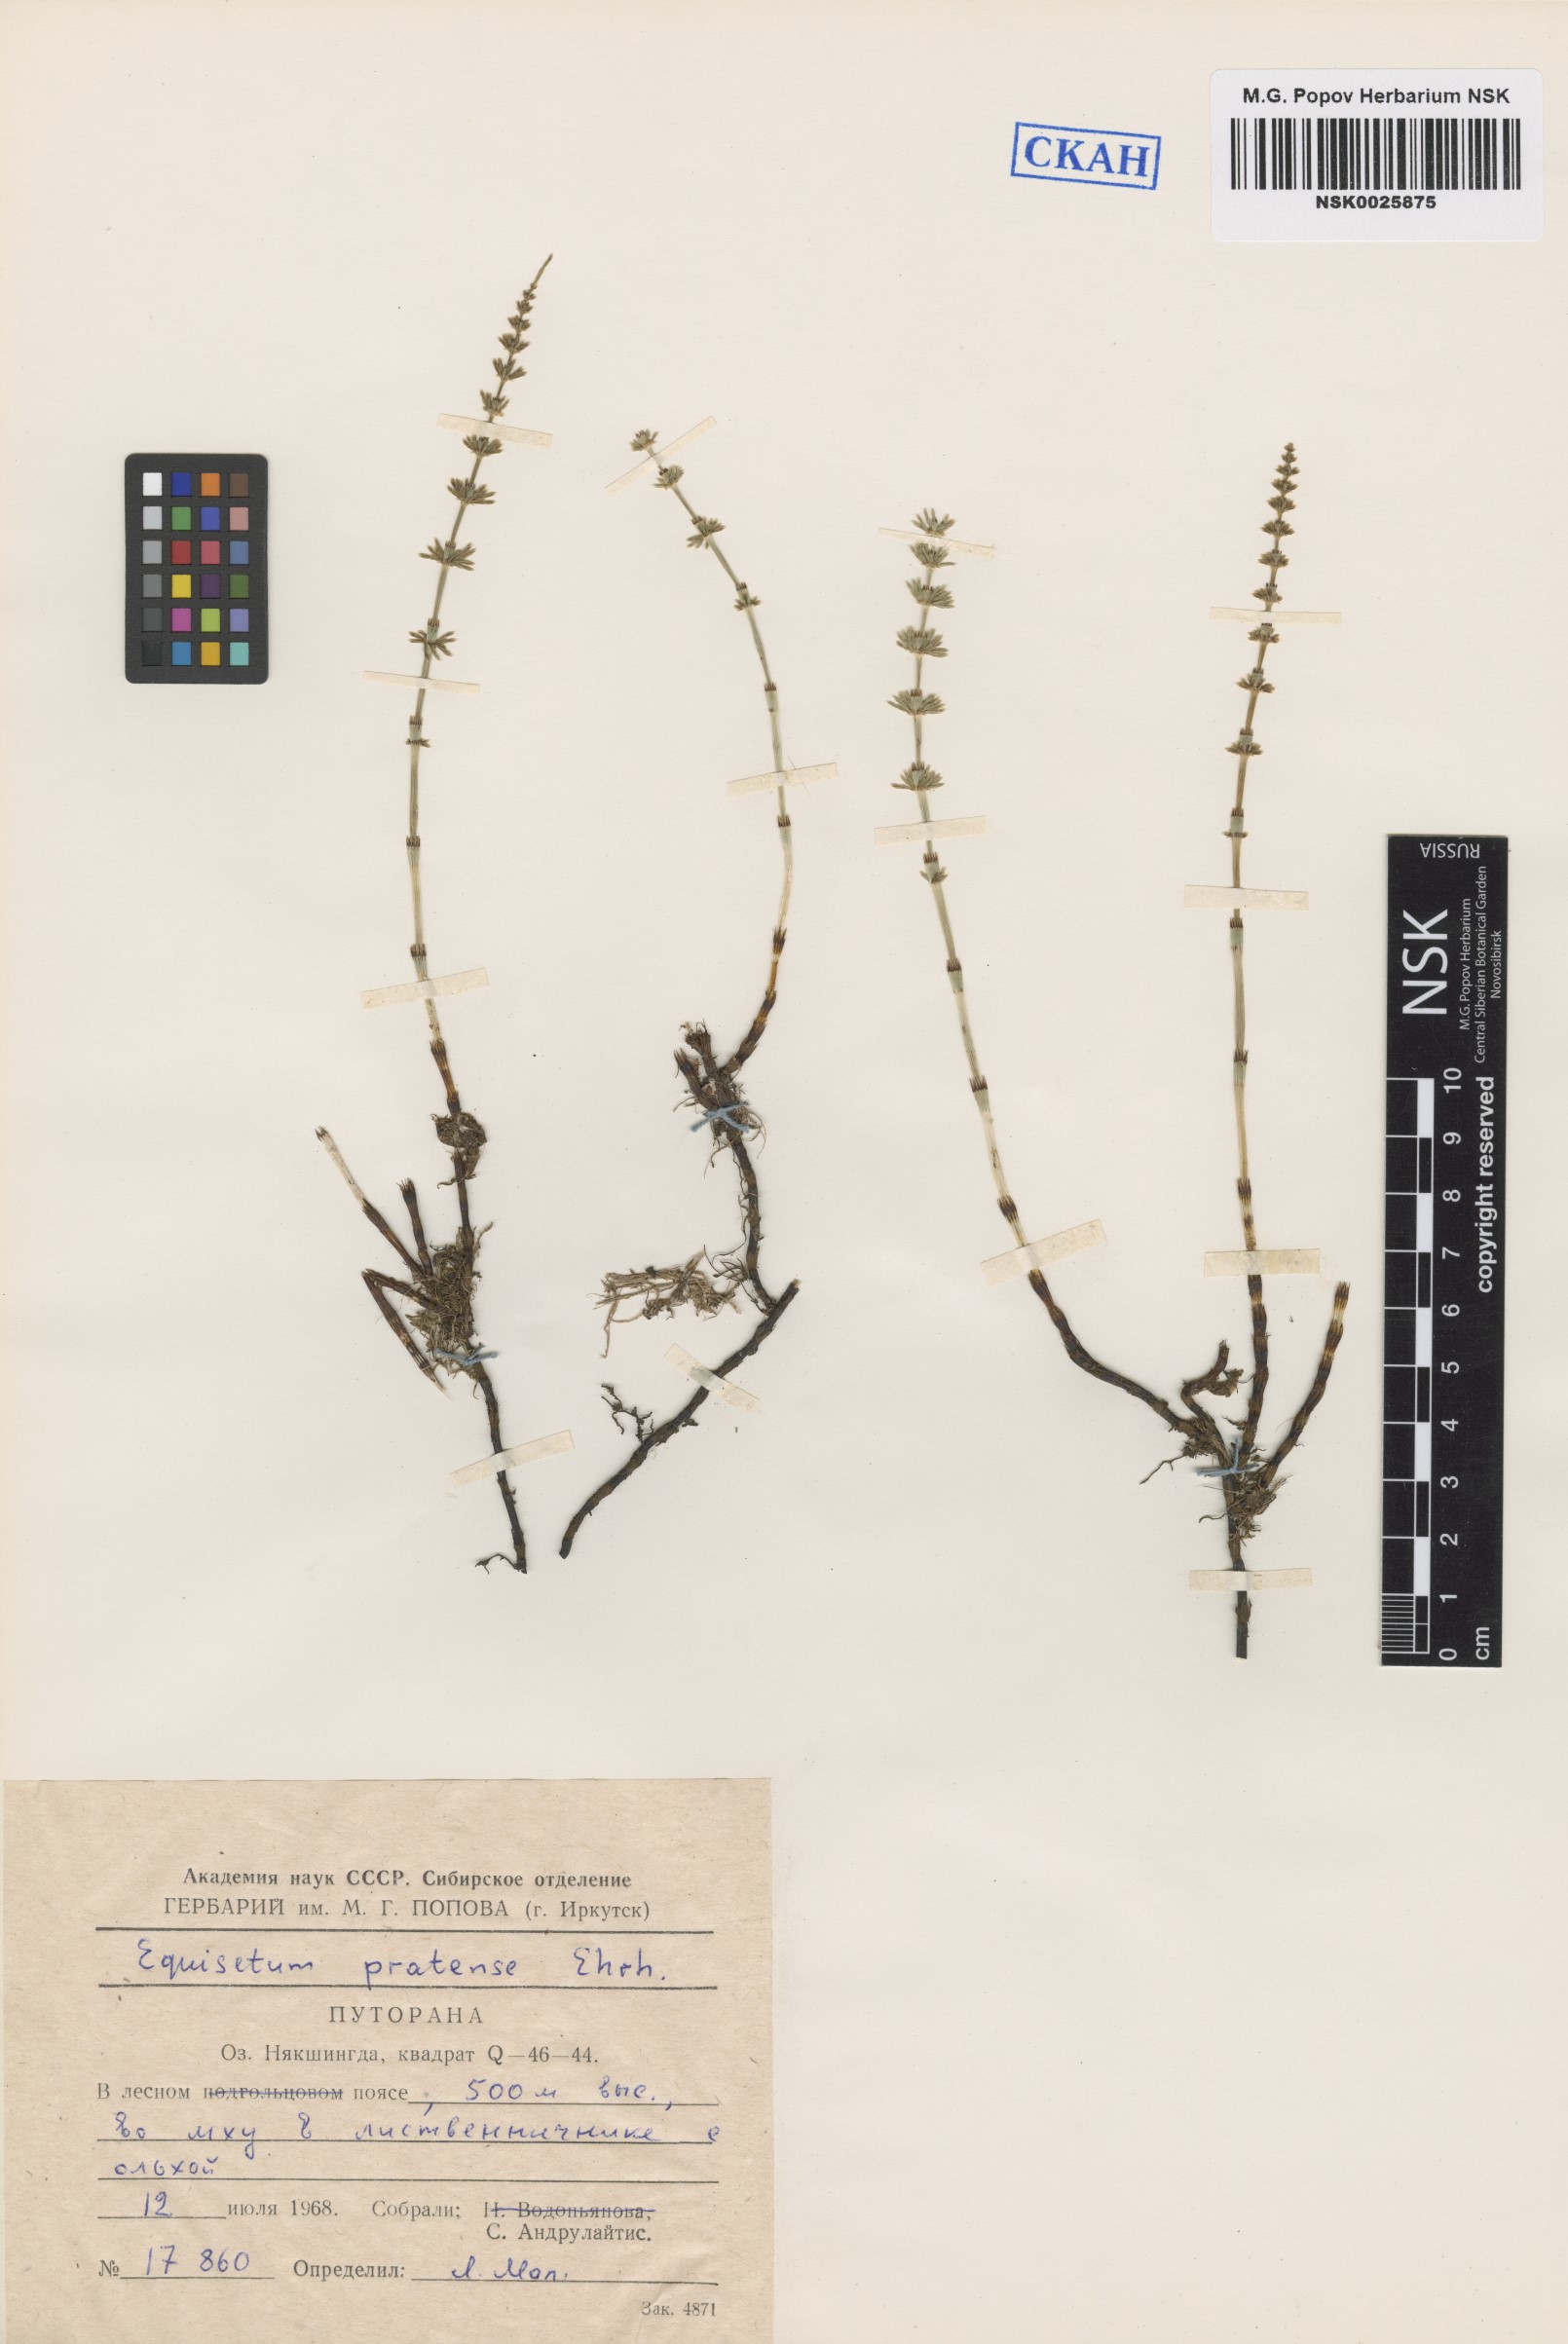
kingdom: Plantae
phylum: Tracheophyta
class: Polypodiopsida
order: Equisetales
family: Equisetaceae
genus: Equisetum
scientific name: Equisetum pratense
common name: Meadow horsetail
